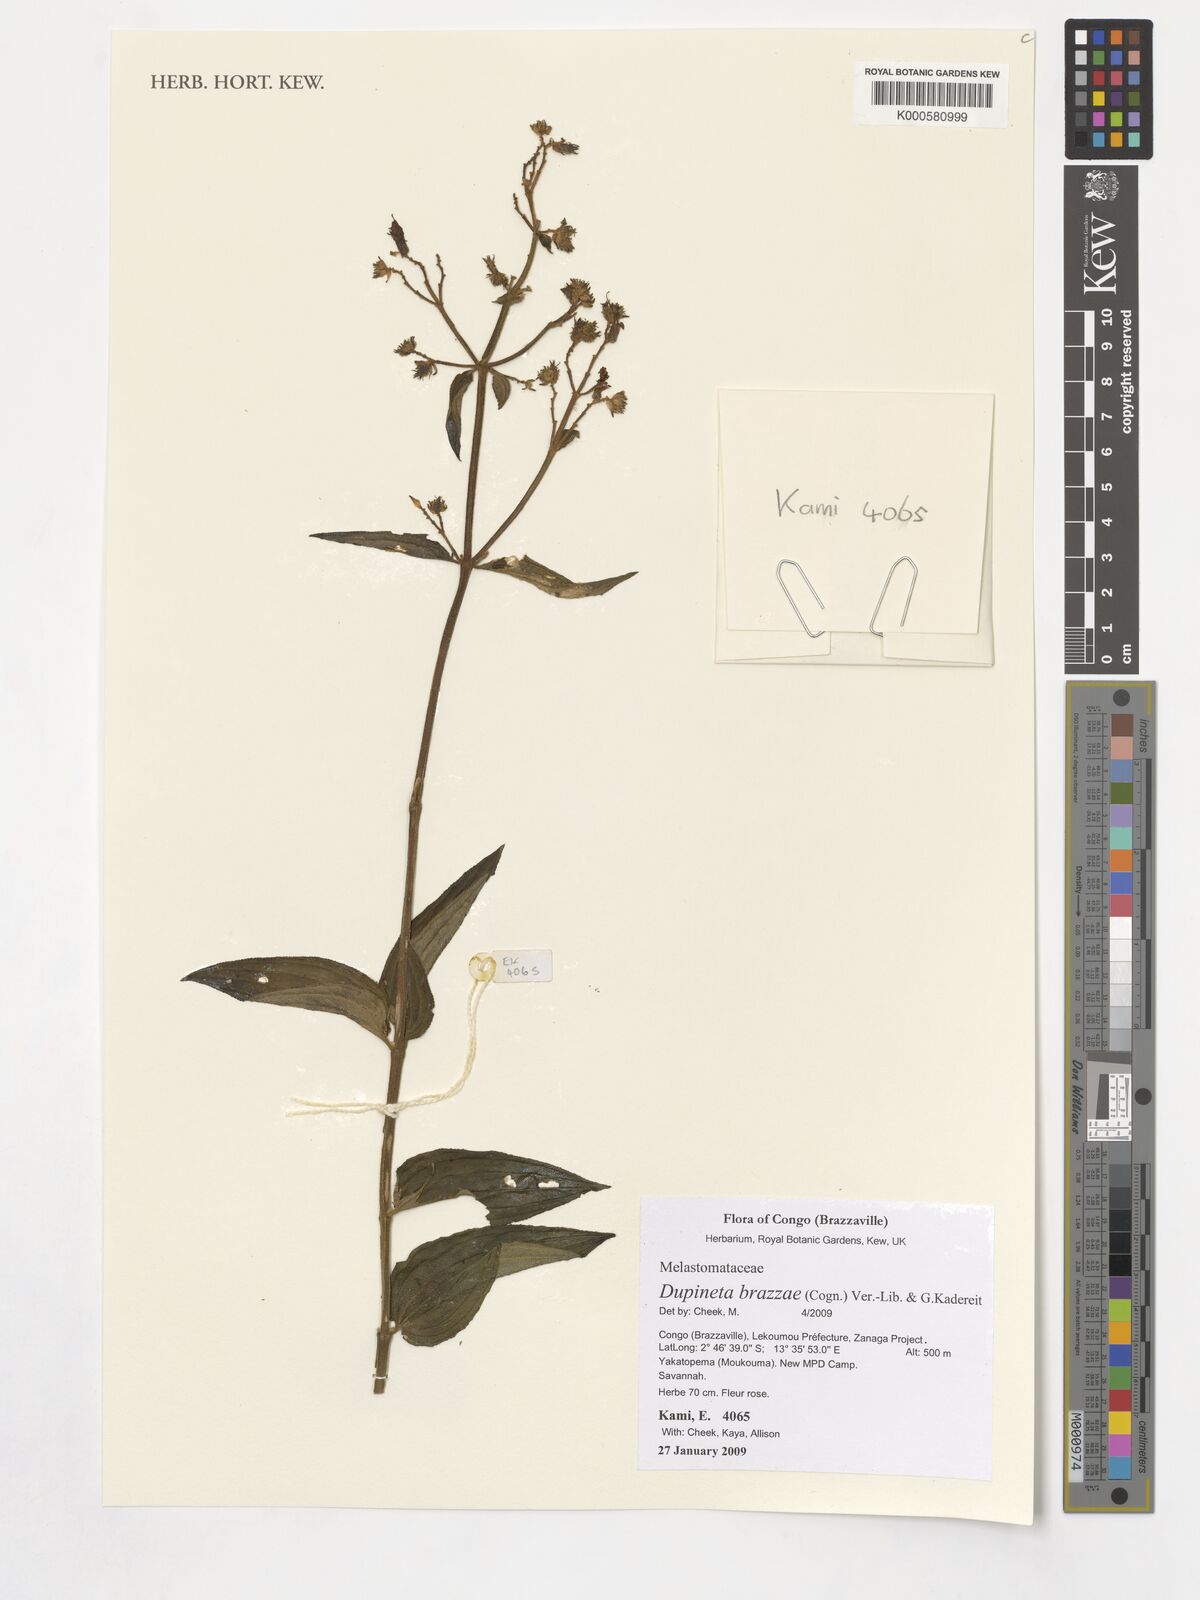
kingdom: Plantae
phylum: Tracheophyta
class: Magnoliopsida
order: Myrtales
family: Melastomataceae
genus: Dupineta
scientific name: Dupineta brazzae
